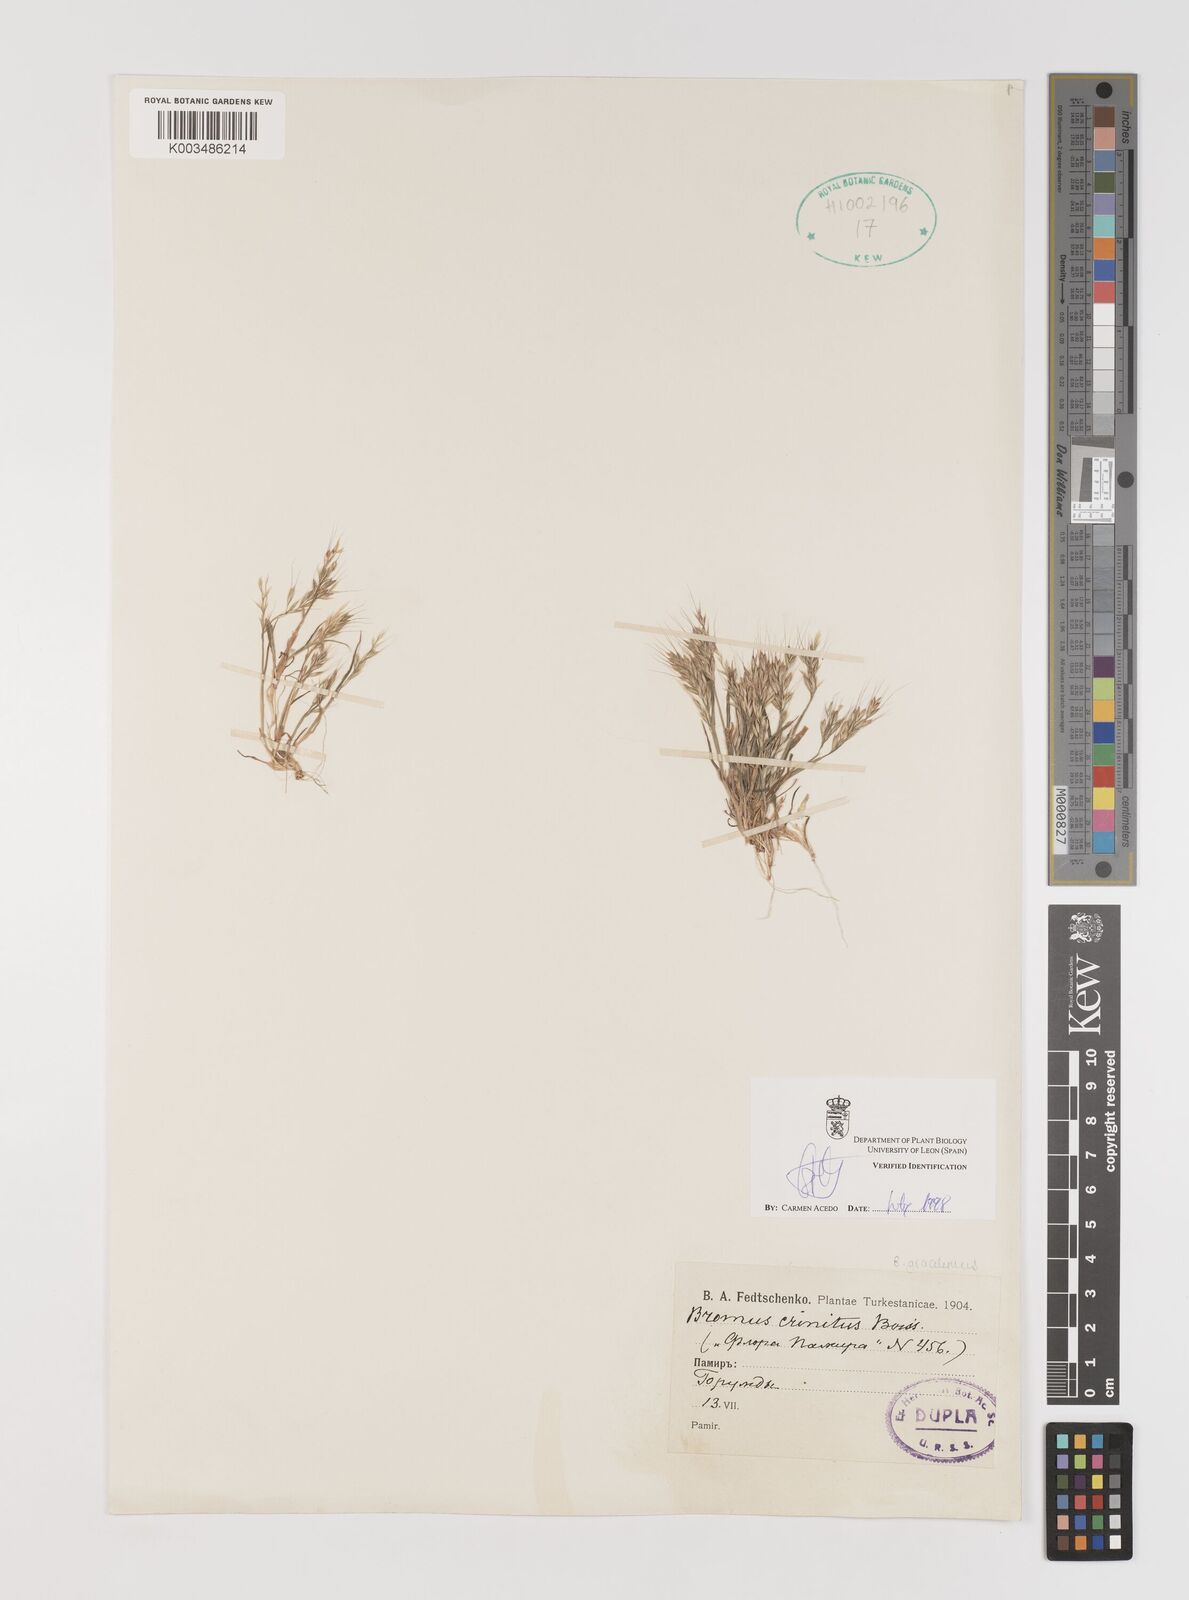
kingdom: Plantae
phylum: Tracheophyta
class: Liliopsida
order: Poales
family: Poaceae
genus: Bromus
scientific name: Bromus gracillimus
